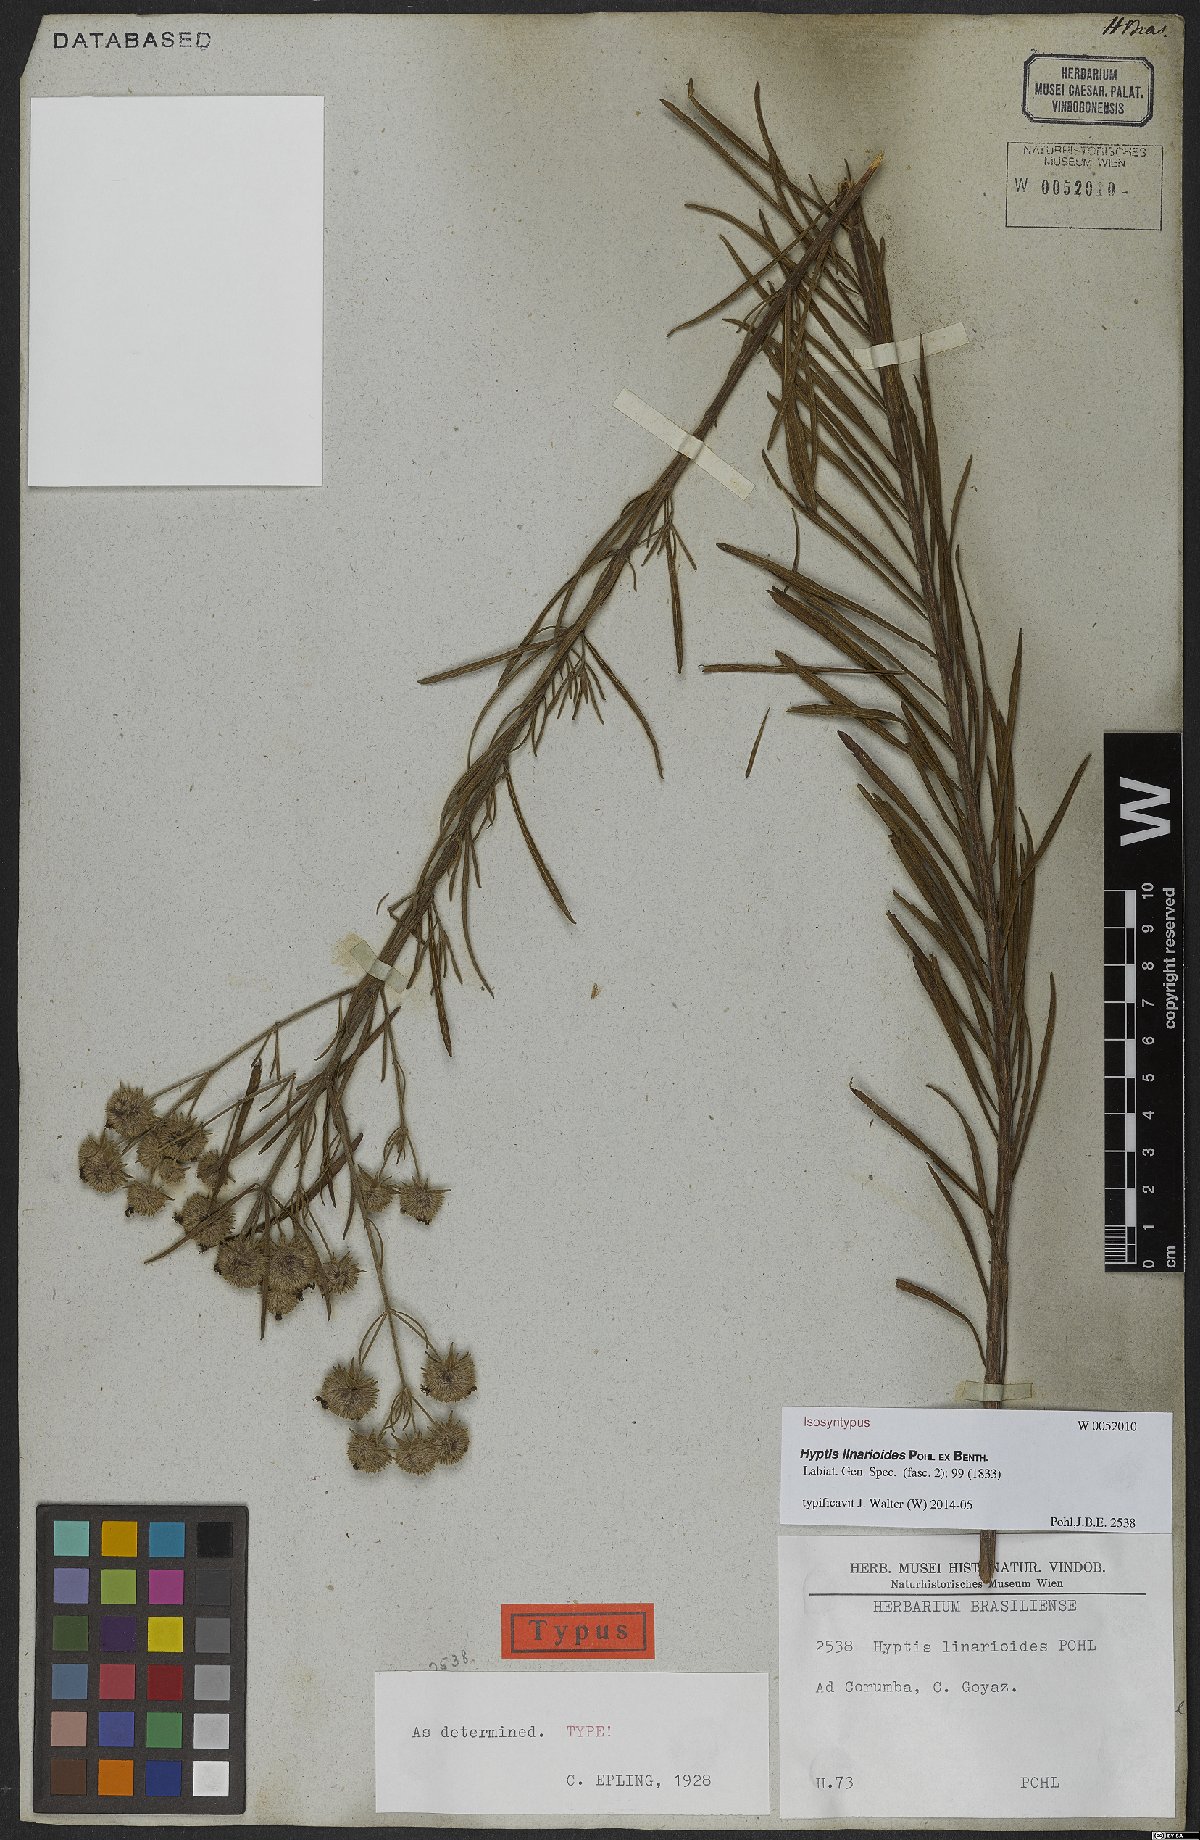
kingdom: Plantae
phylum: Tracheophyta
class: Magnoliopsida
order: Lamiales
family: Lamiaceae
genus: Hyptis
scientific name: Hyptis linarioides
